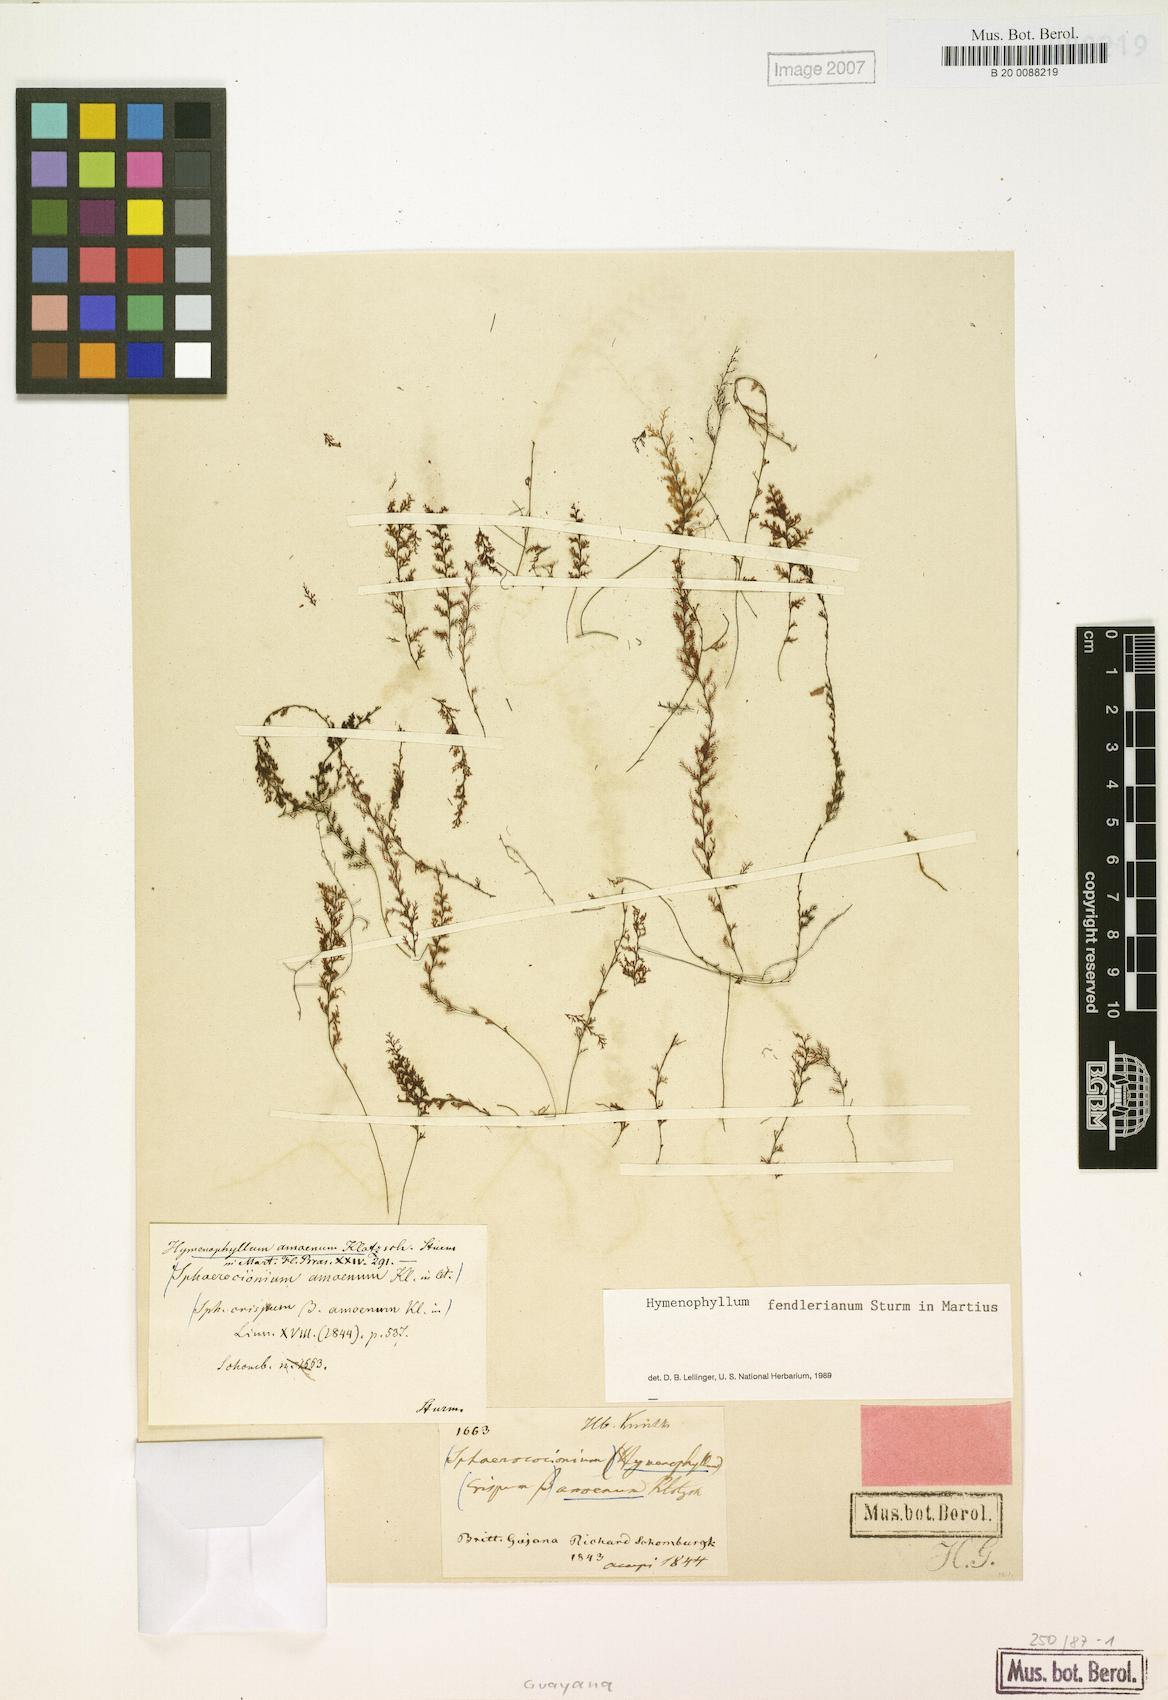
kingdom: Plantae
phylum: Tracheophyta
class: Polypodiopsida
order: Hymenophyllales
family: Hymenophyllaceae
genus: Hymenophyllum
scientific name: Hymenophyllum fendlerianum
